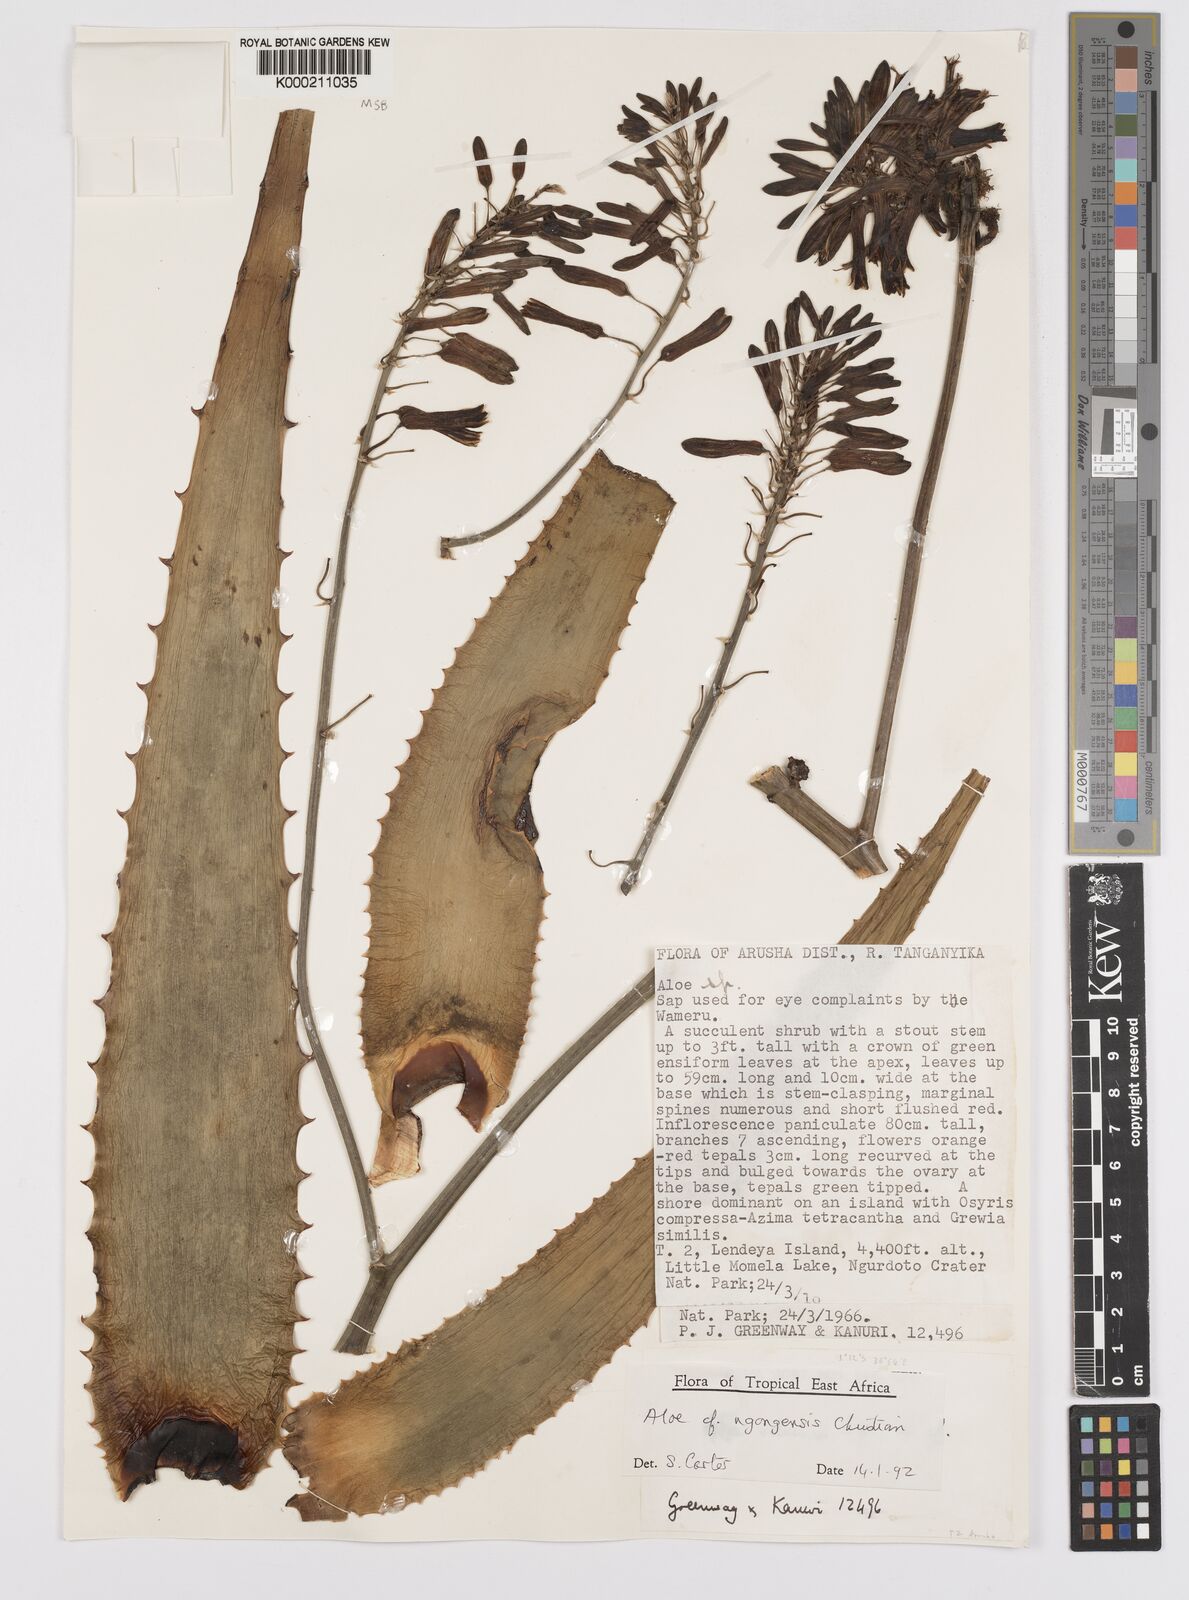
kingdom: Plantae
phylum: Tracheophyta
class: Liliopsida
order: Asparagales
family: Asphodelaceae
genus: Aloe
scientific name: Aloe ngongensis
